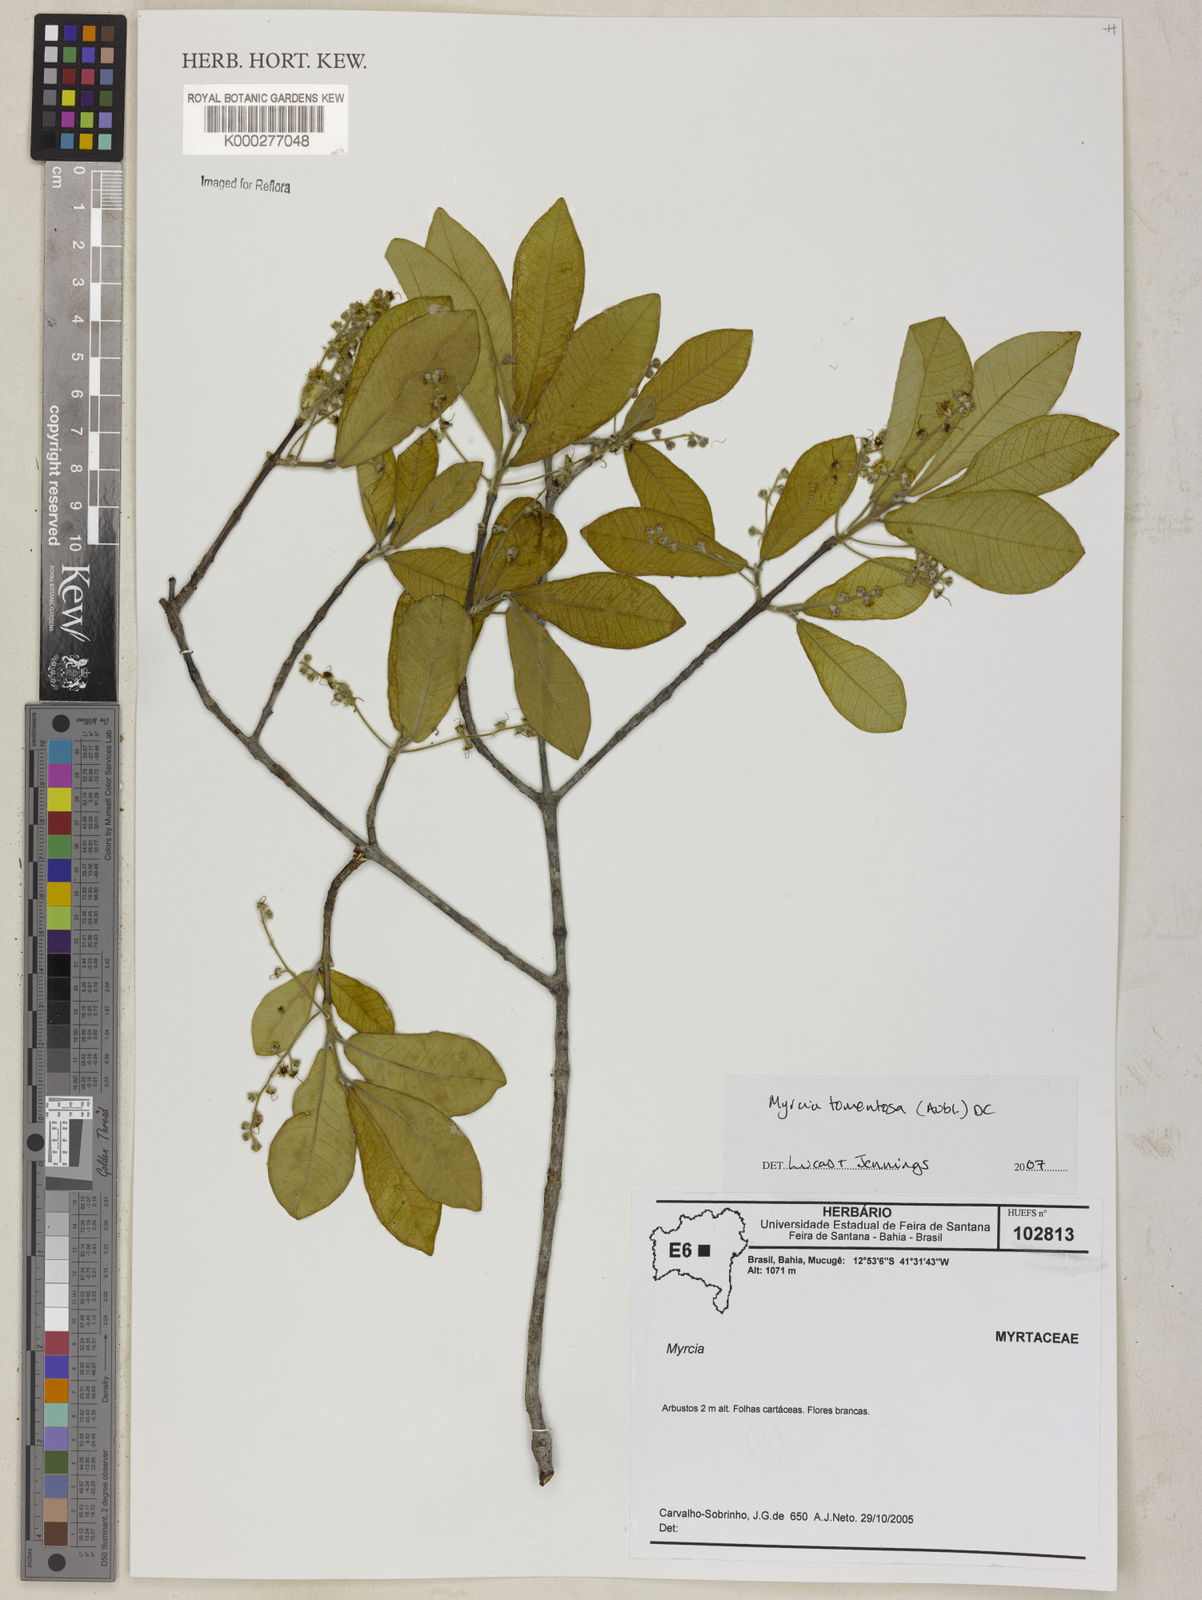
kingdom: Plantae
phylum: Tracheophyta
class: Magnoliopsida
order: Myrtales
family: Myrtaceae
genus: Myrcia
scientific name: Myrcia tomentosa
